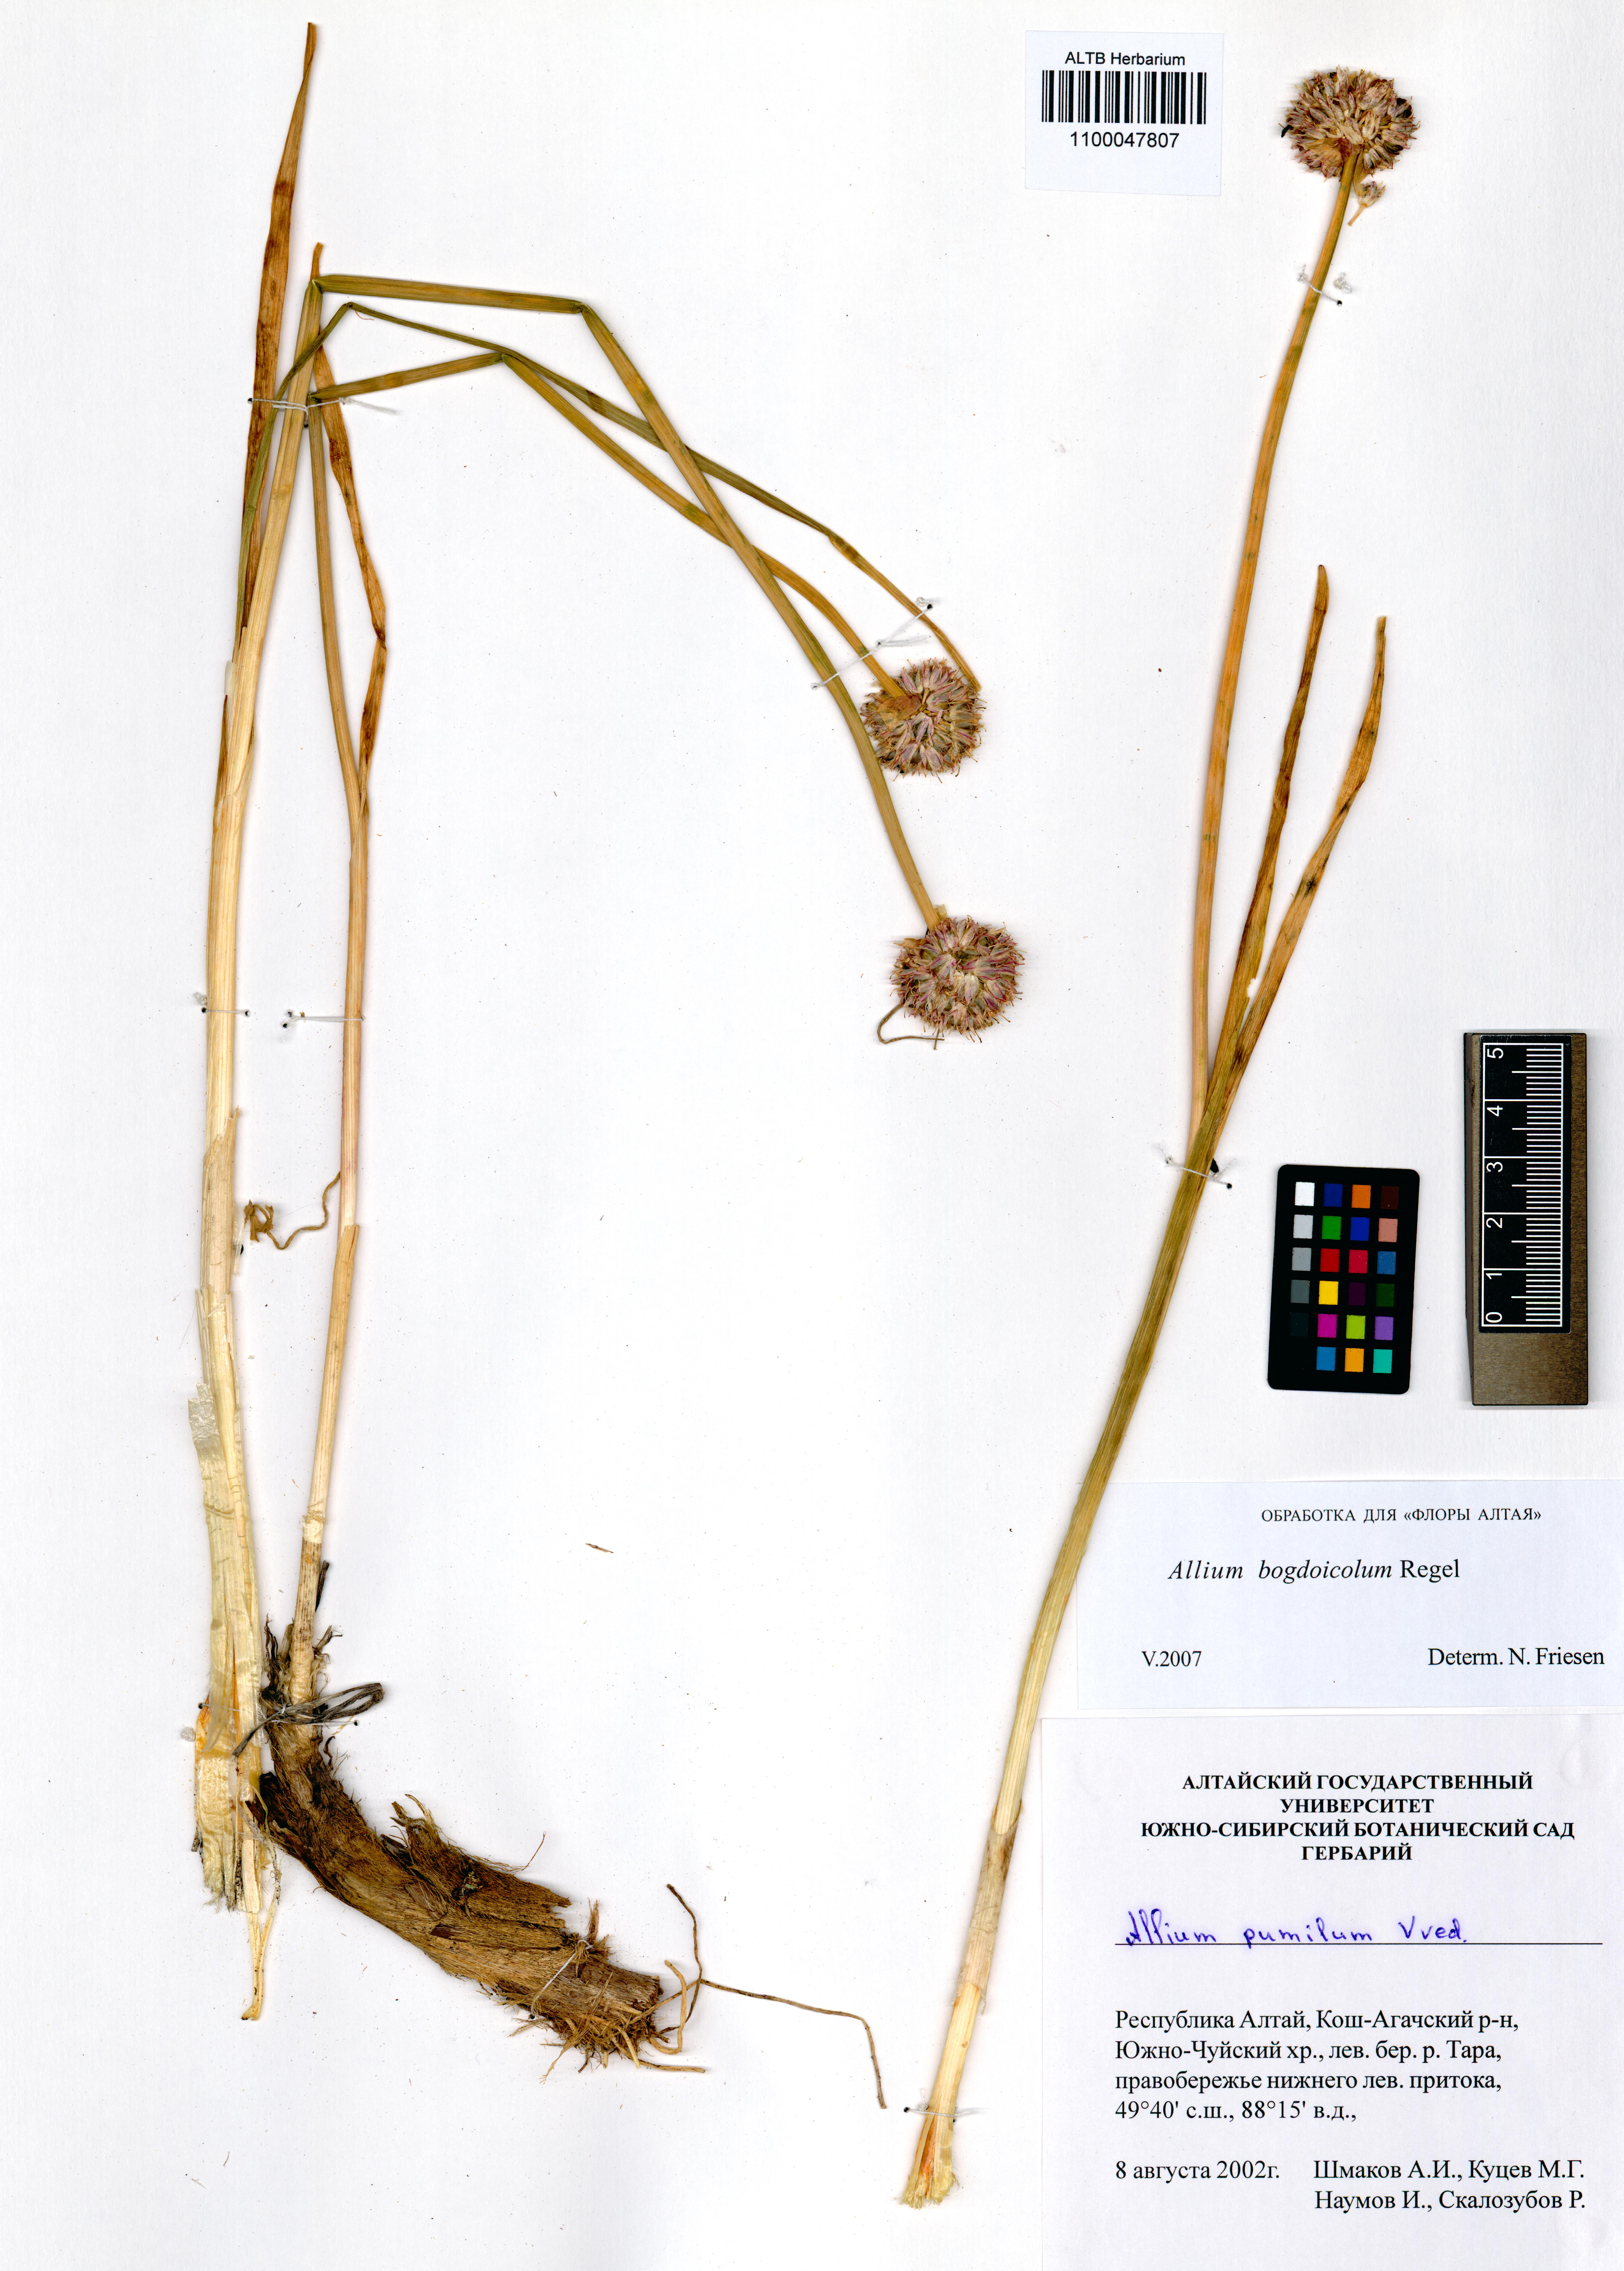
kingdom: Plantae
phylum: Tracheophyta
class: Liliopsida
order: Asparagales
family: Amaryllidaceae
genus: Allium
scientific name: Allium schrenkii
